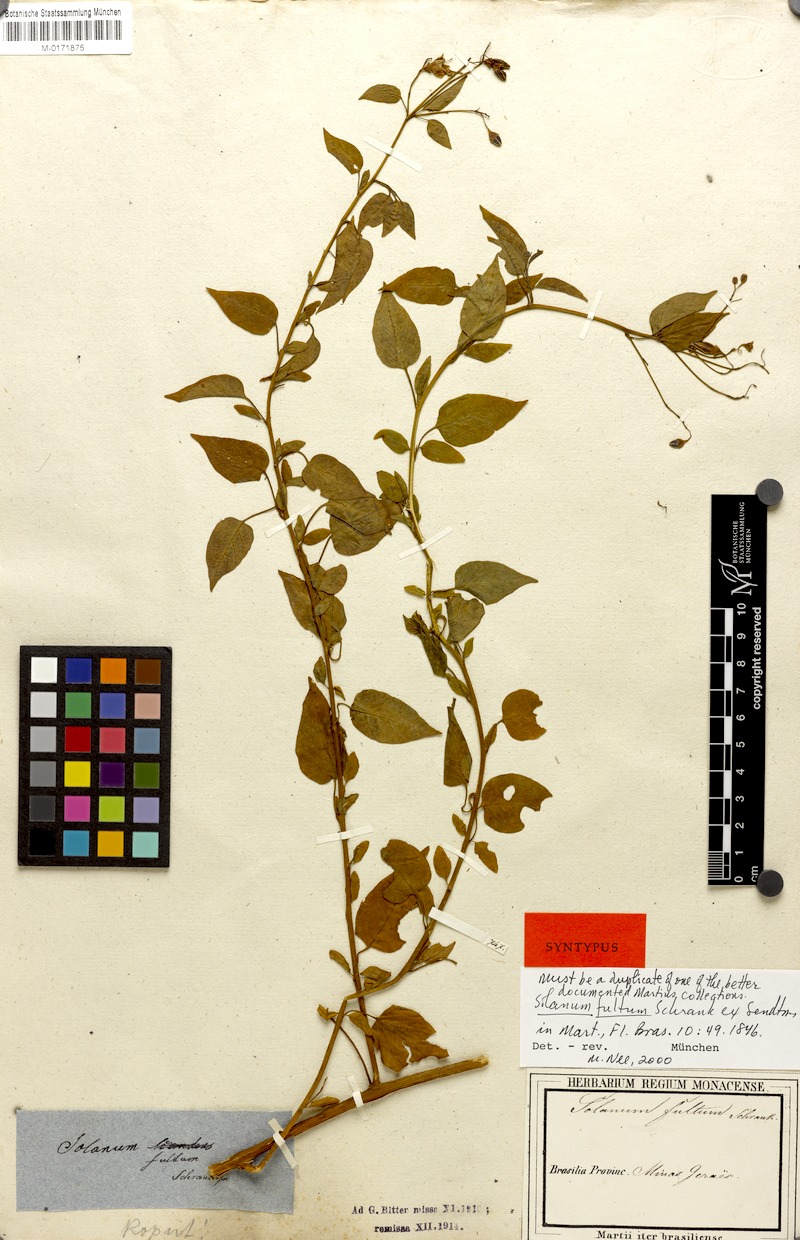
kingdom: Plantae
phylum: Tracheophyta
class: Magnoliopsida
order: Solanales
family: Solanaceae
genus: Solanum
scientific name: Solanum fultum
